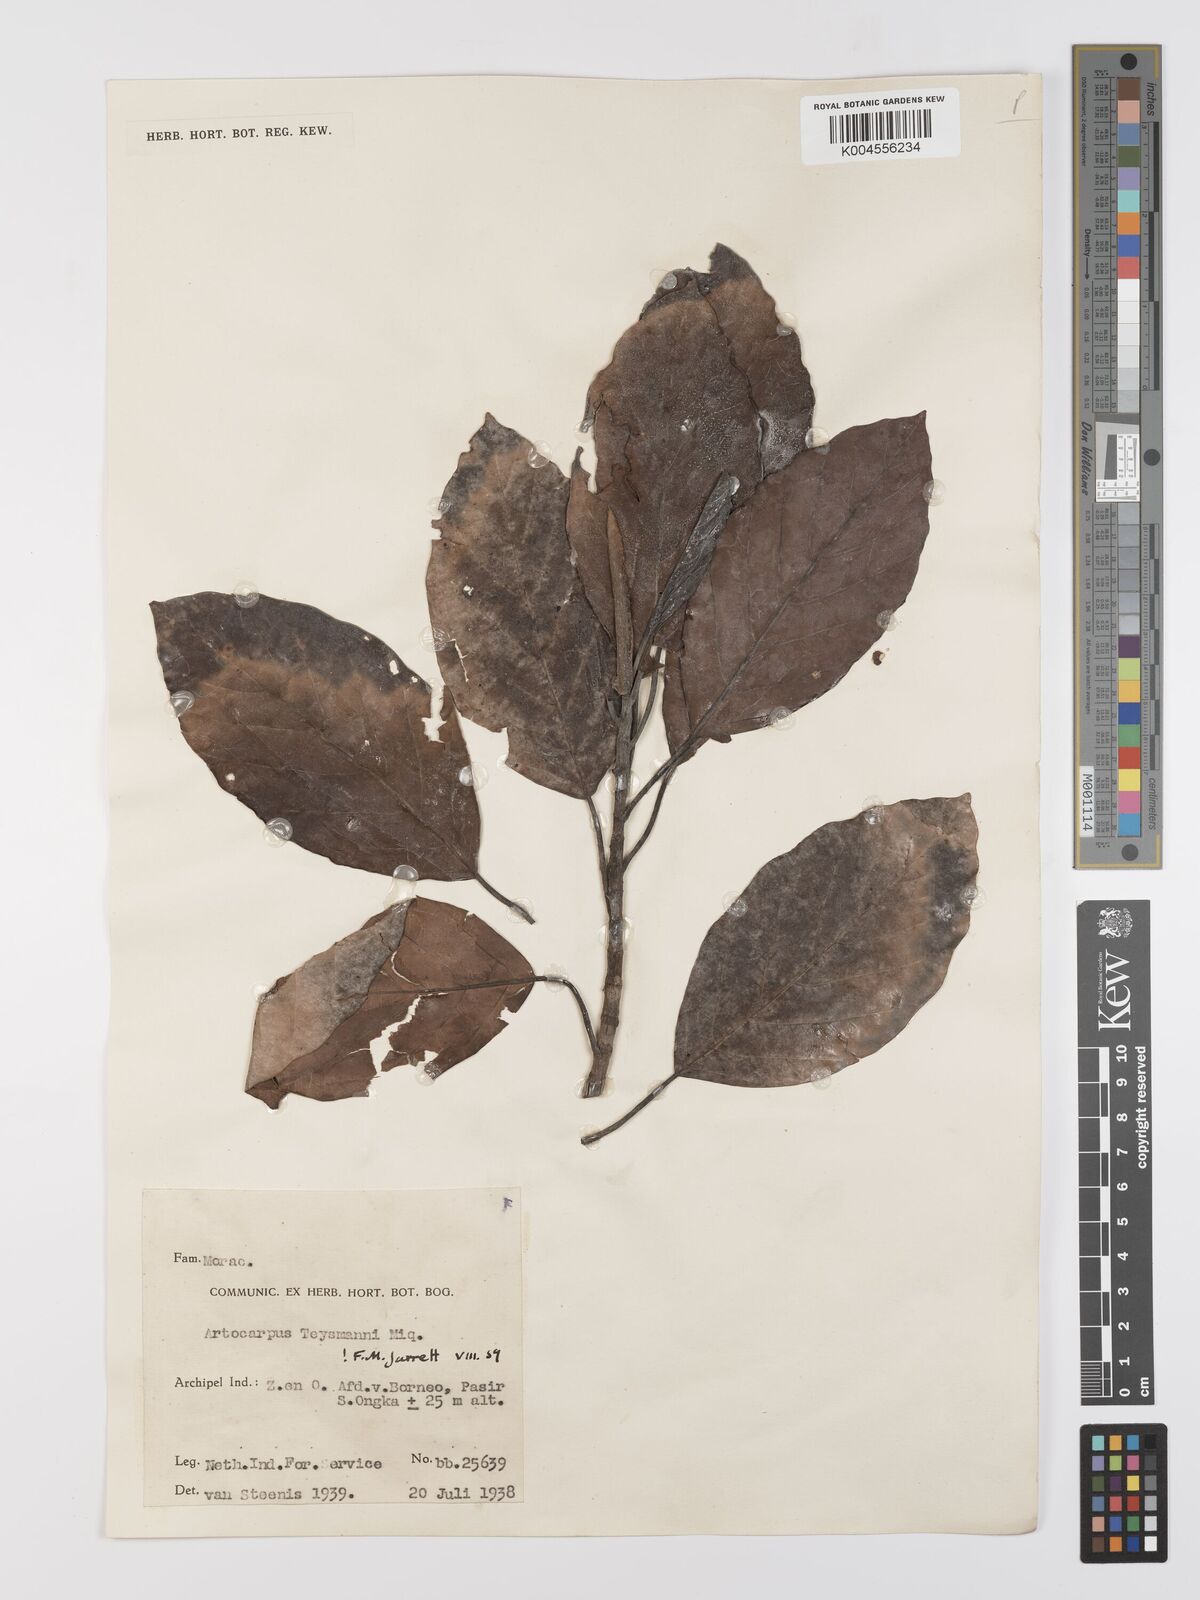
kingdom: Plantae
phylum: Tracheophyta
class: Magnoliopsida
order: Rosales
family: Moraceae
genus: Artocarpus
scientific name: Artocarpus teysmannii
